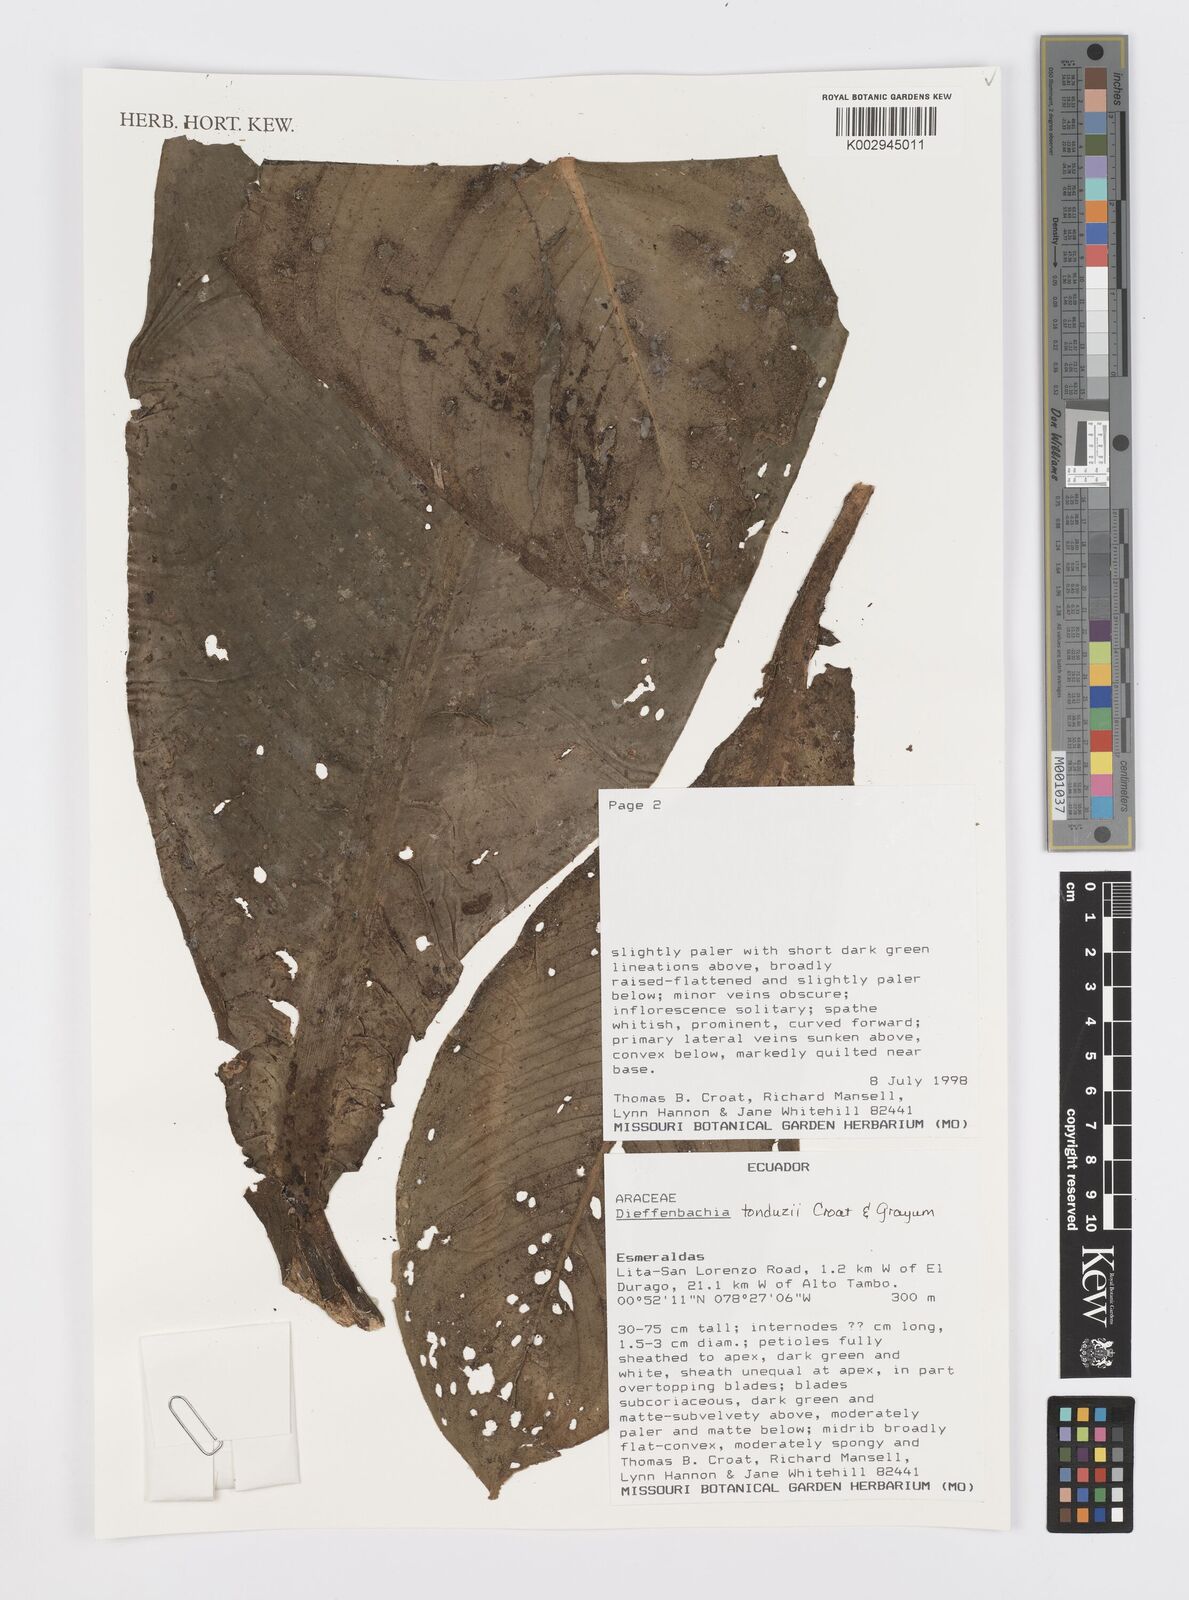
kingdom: Plantae
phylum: Tracheophyta
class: Liliopsida
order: Alismatales
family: Araceae
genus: Dieffenbachia
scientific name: Dieffenbachia tonduzii
